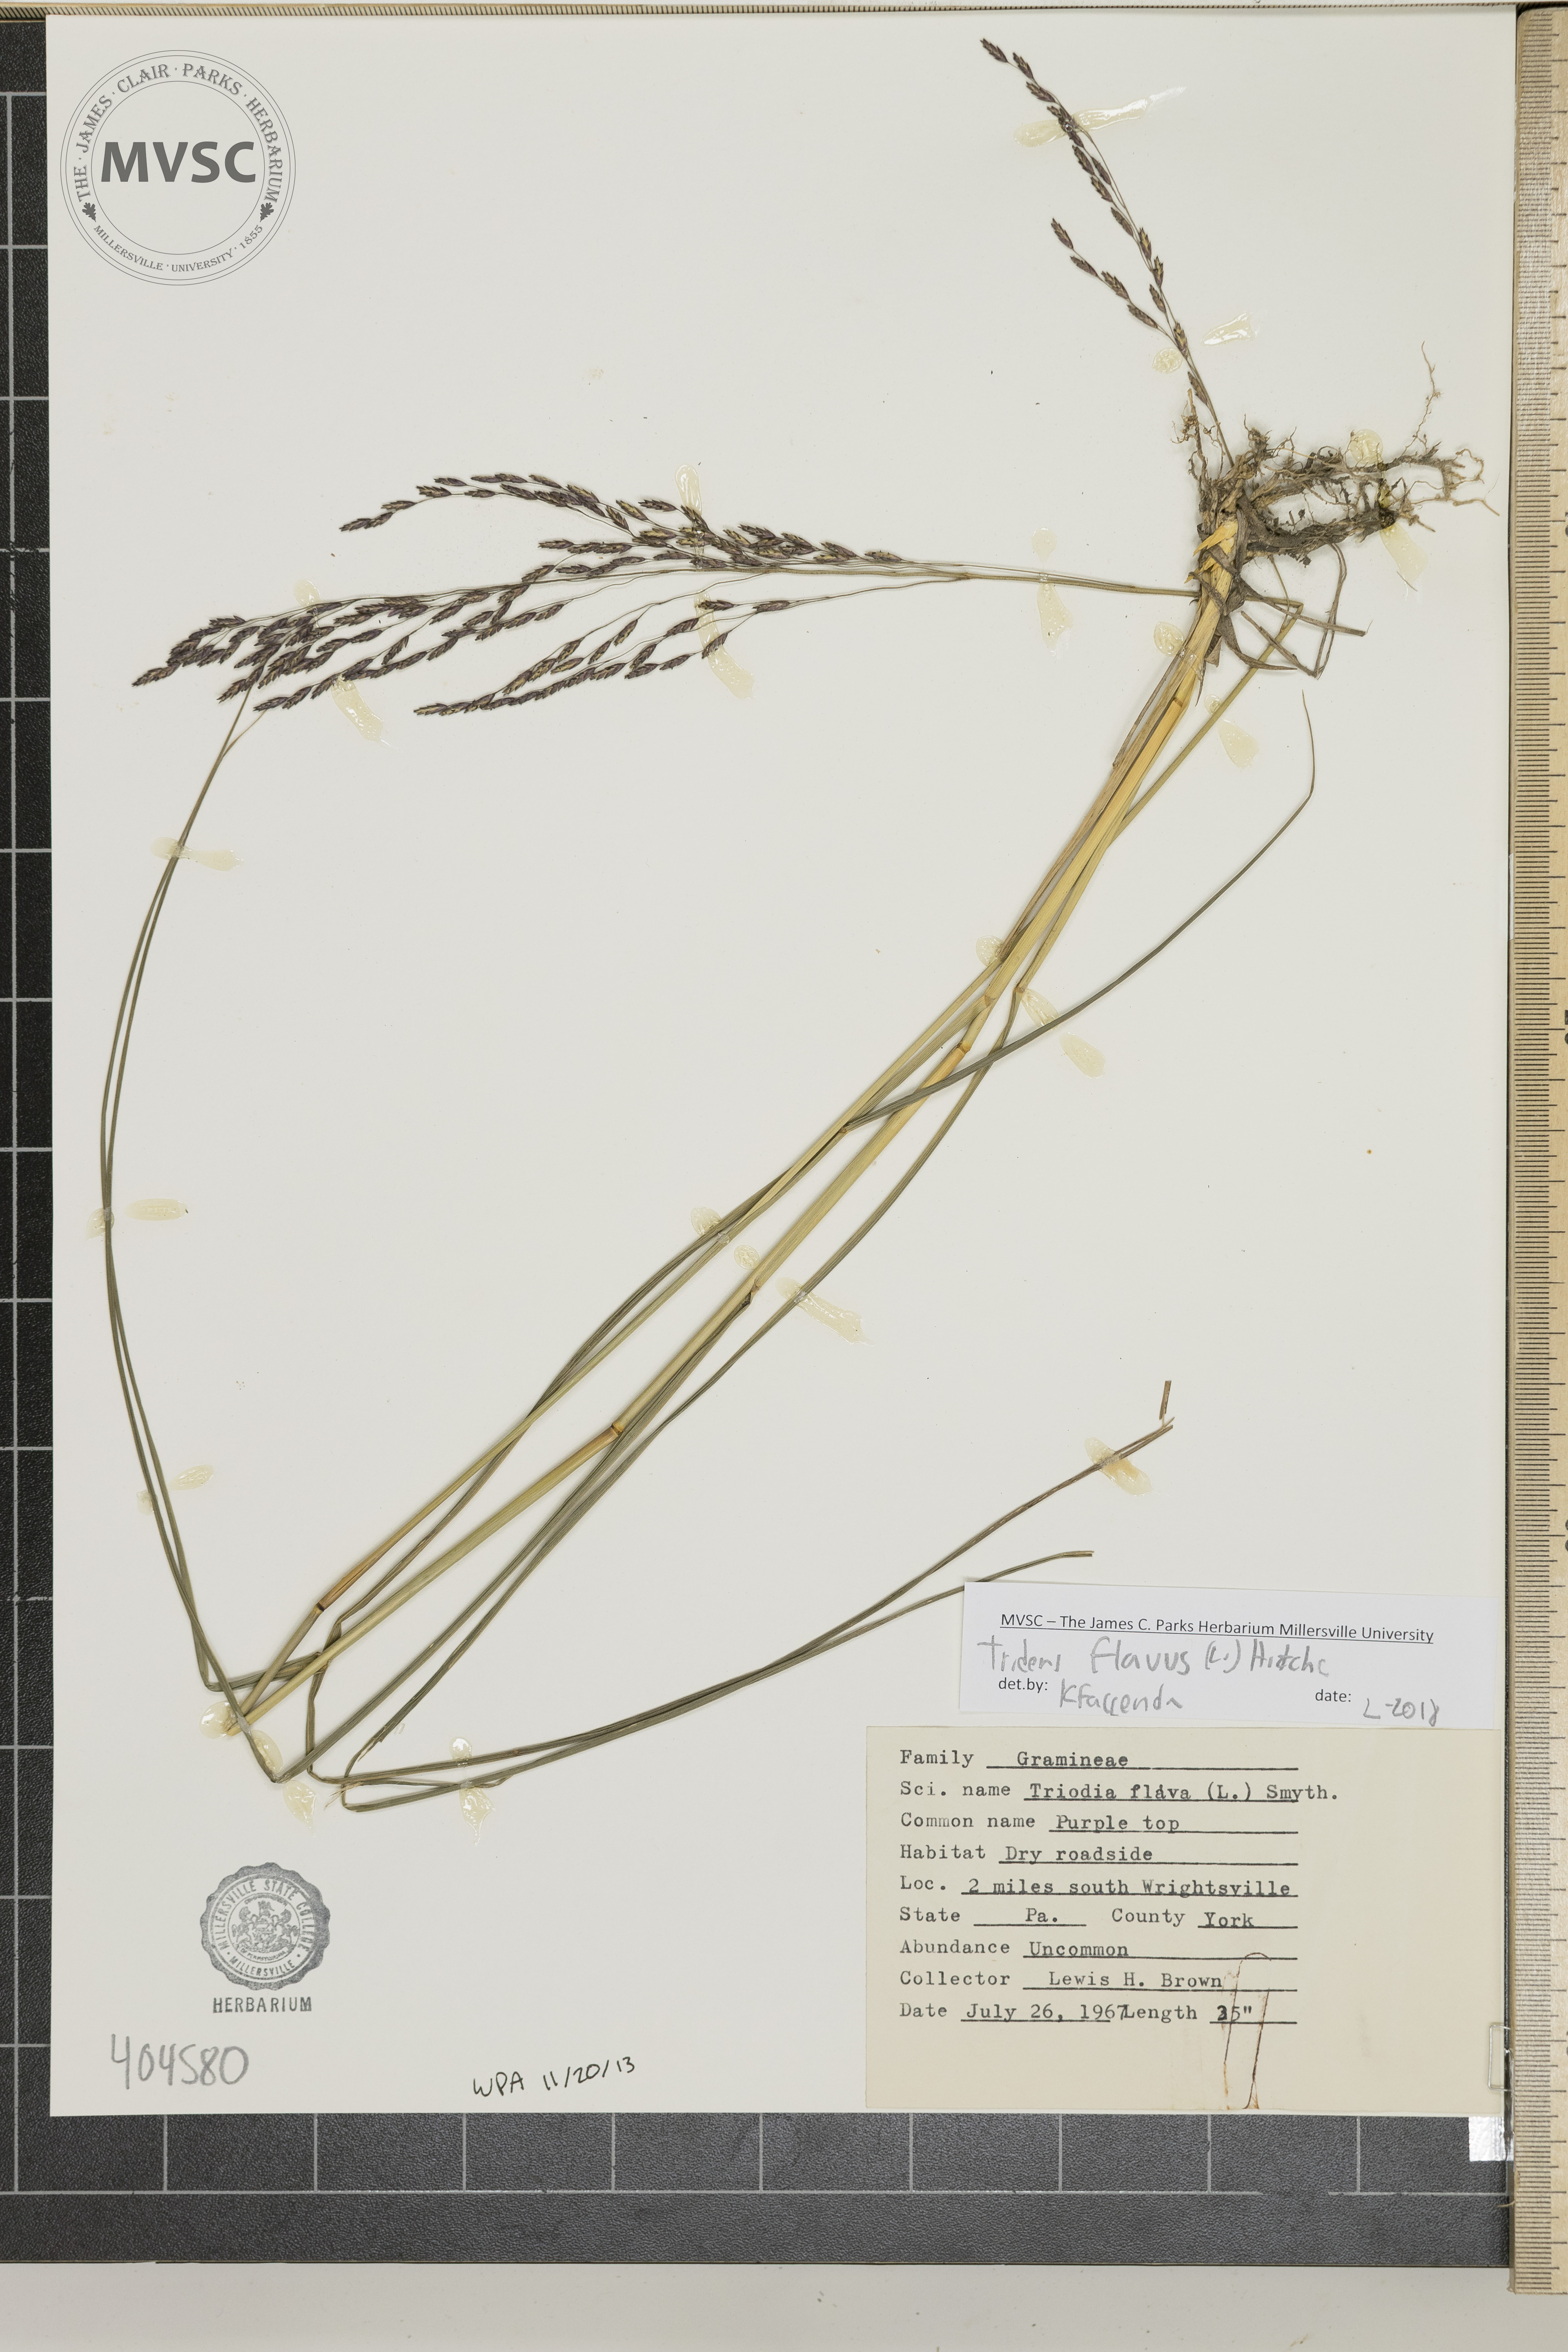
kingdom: Plantae
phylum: Tracheophyta
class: Liliopsida
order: Poales
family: Poaceae
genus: Tridens
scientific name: Tridens flavus
